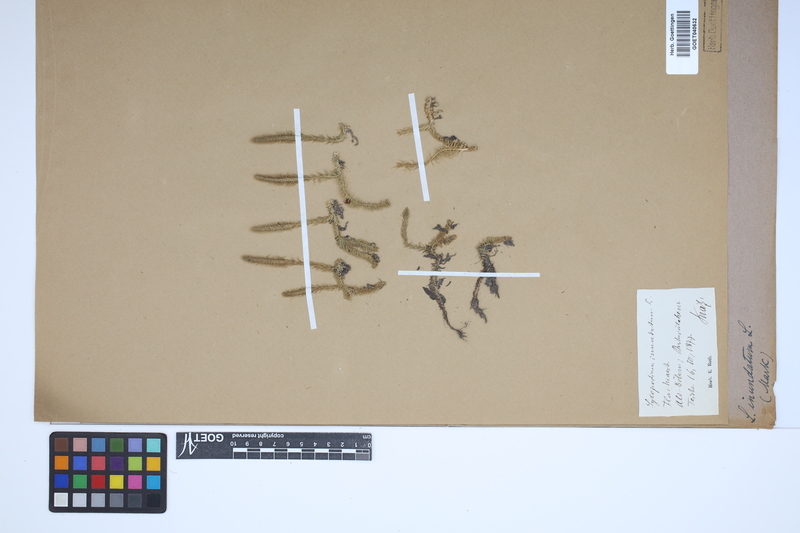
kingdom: Plantae
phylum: Tracheophyta
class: Lycopodiopsida
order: Lycopodiales
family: Lycopodiaceae
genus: Lycopodiella
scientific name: Lycopodiella inundata
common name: Marsh clubmoss
